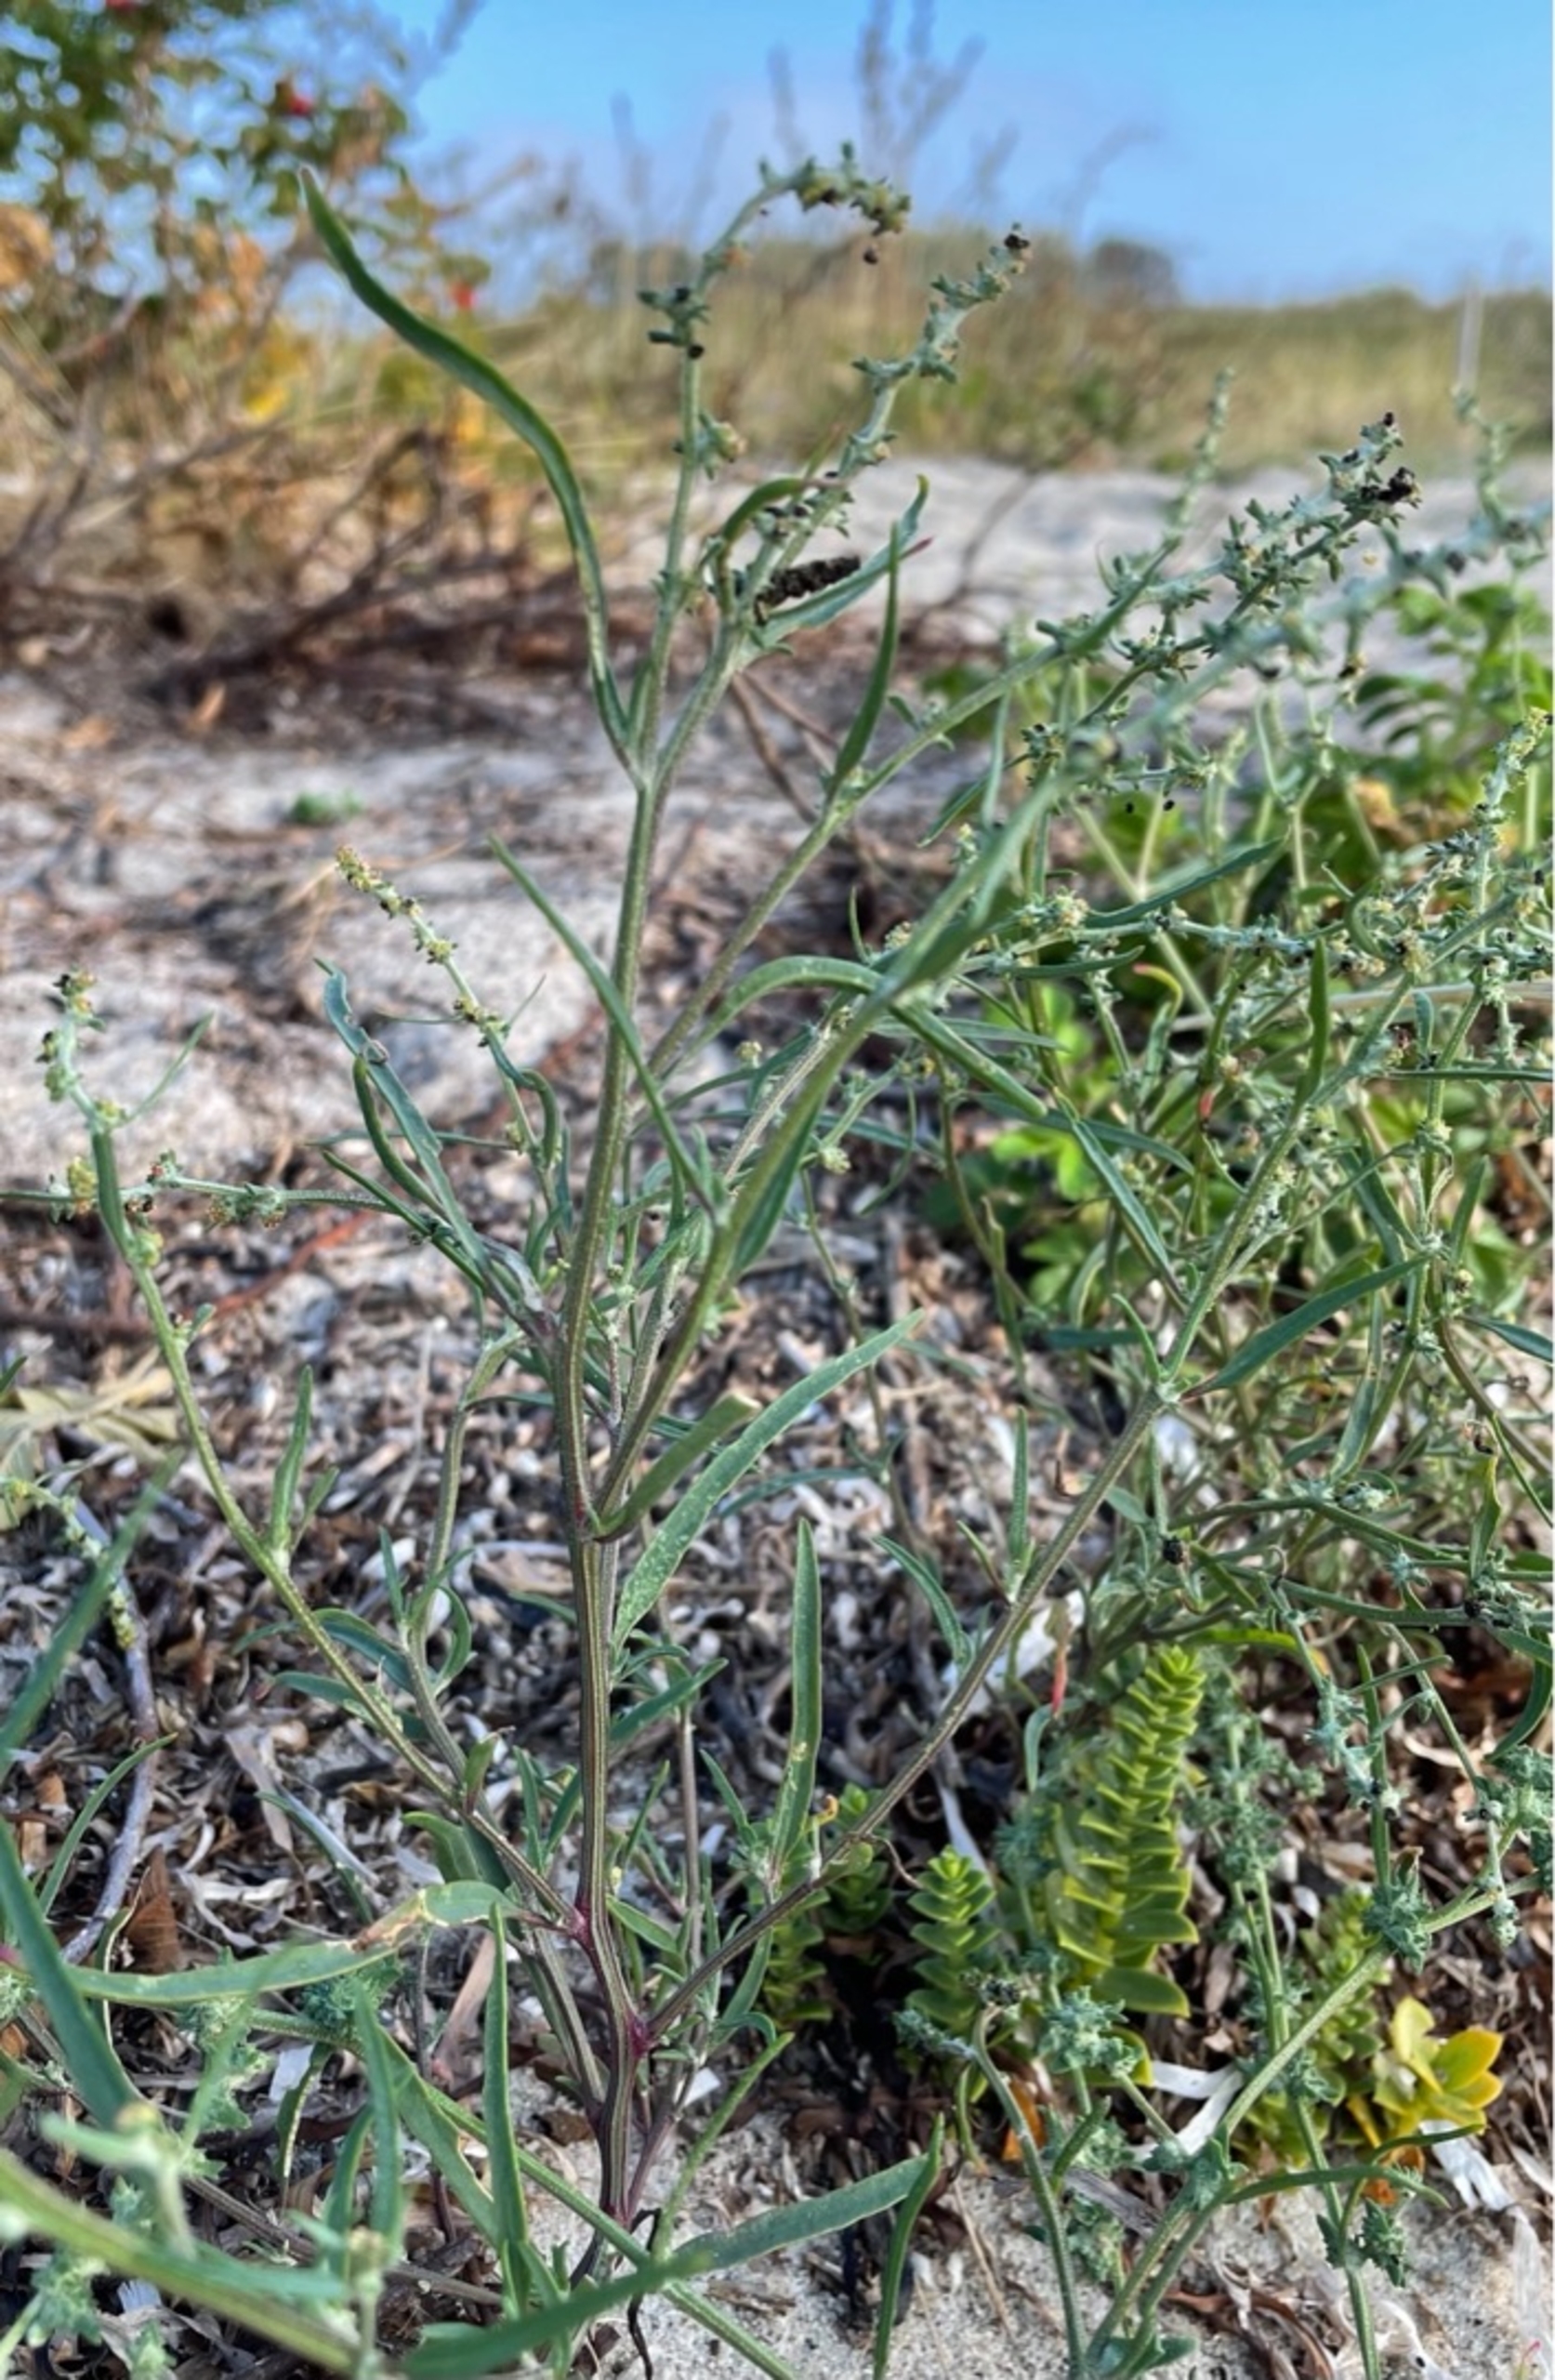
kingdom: Plantae
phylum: Tracheophyta
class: Magnoliopsida
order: Caryophyllales
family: Amaranthaceae
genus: Atriplex
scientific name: Atriplex littoralis
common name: Strand-mælde
